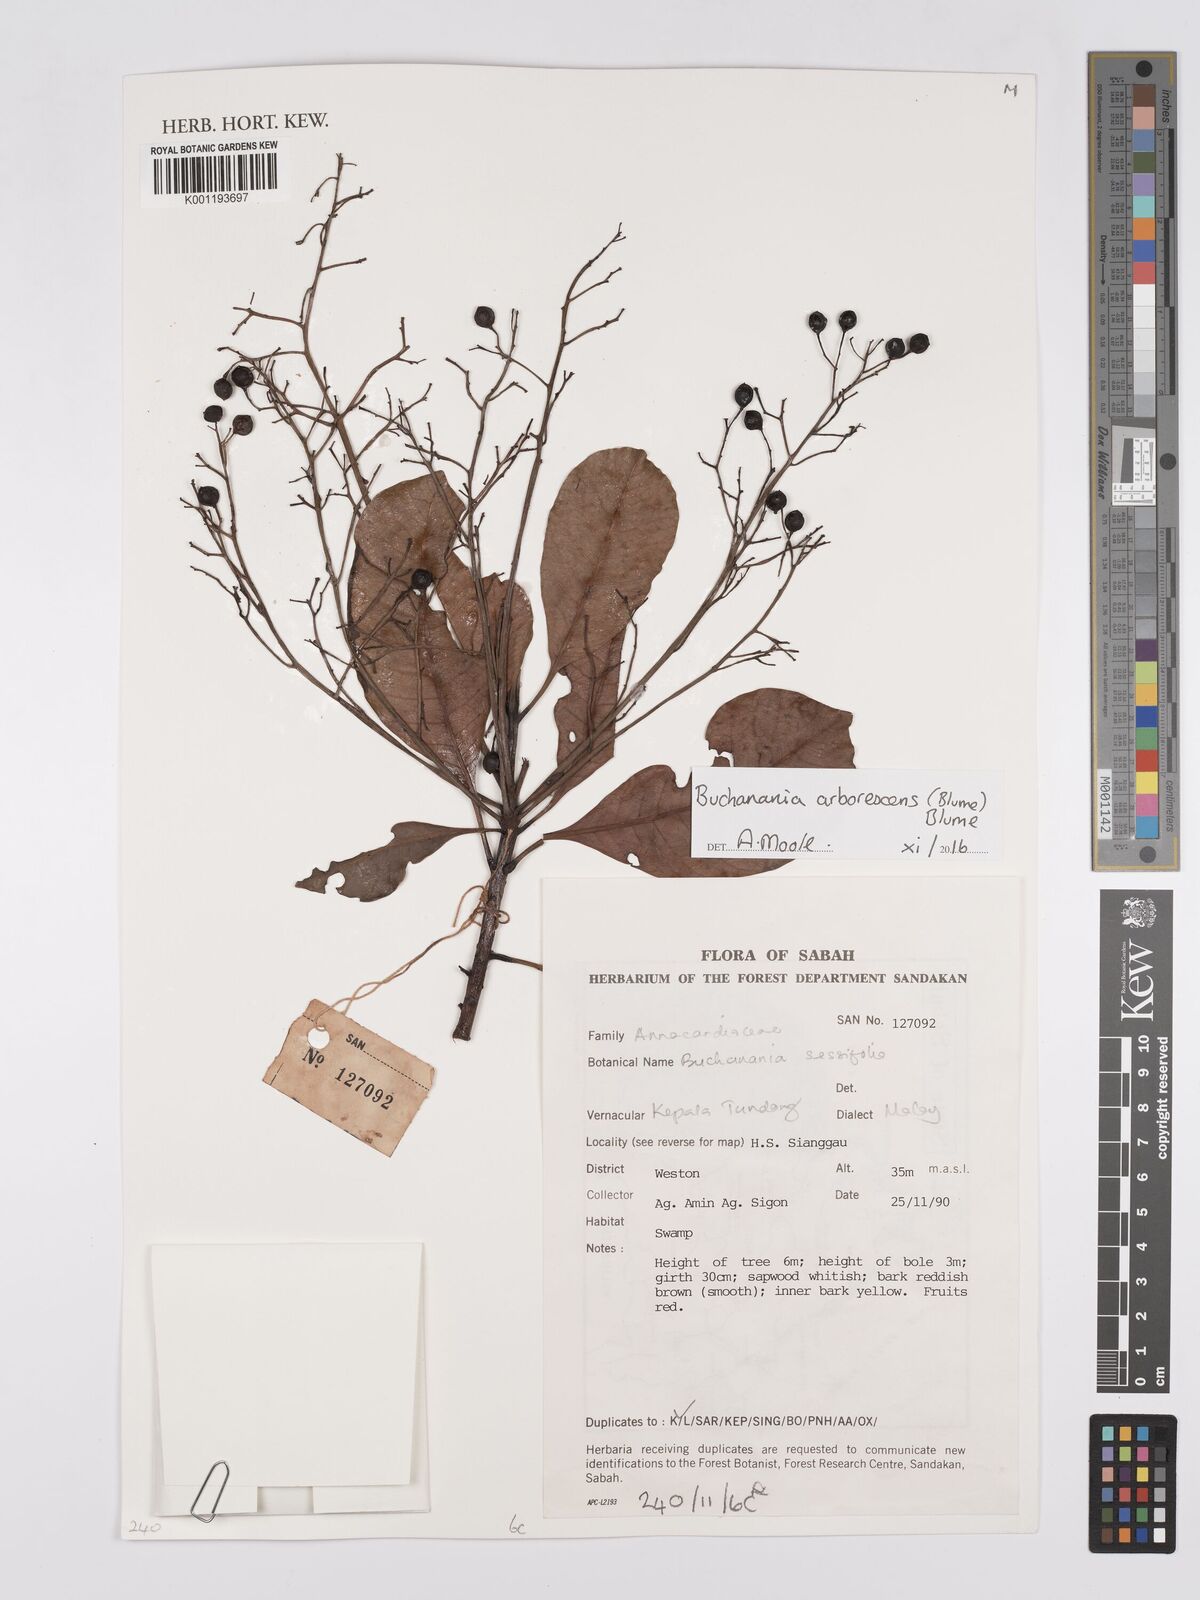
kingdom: Plantae
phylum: Tracheophyta
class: Magnoliopsida
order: Sapindales
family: Anacardiaceae
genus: Buchanania
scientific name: Buchanania arborescens
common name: Sparrow’s mango
